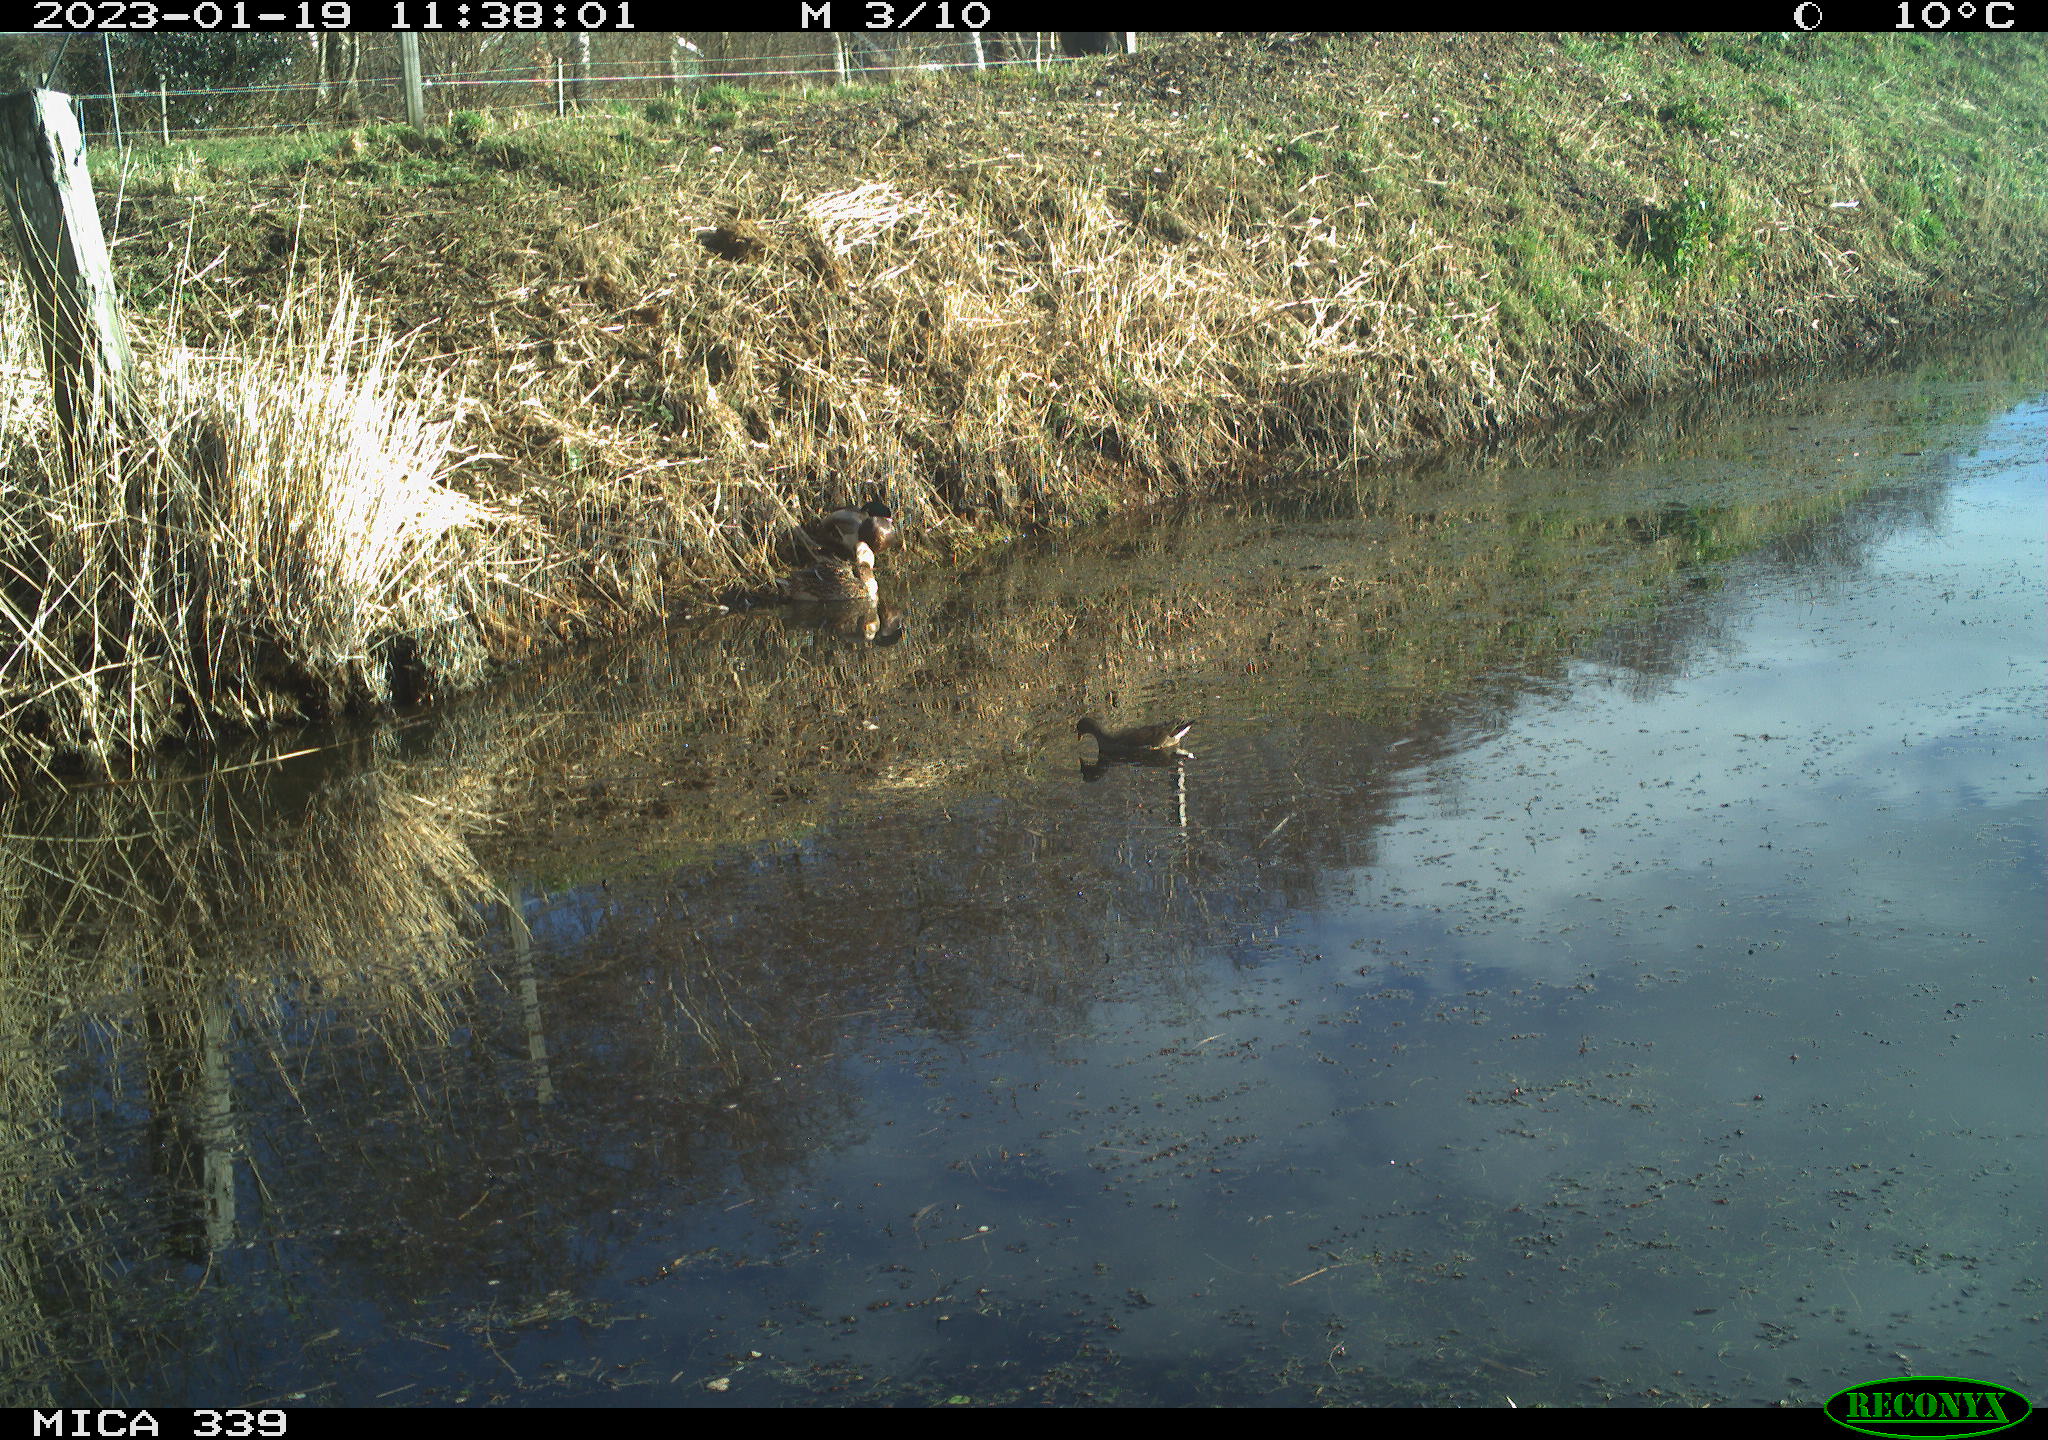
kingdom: Animalia
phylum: Chordata
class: Aves
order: Anseriformes
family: Anatidae
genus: Anas
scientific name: Anas
